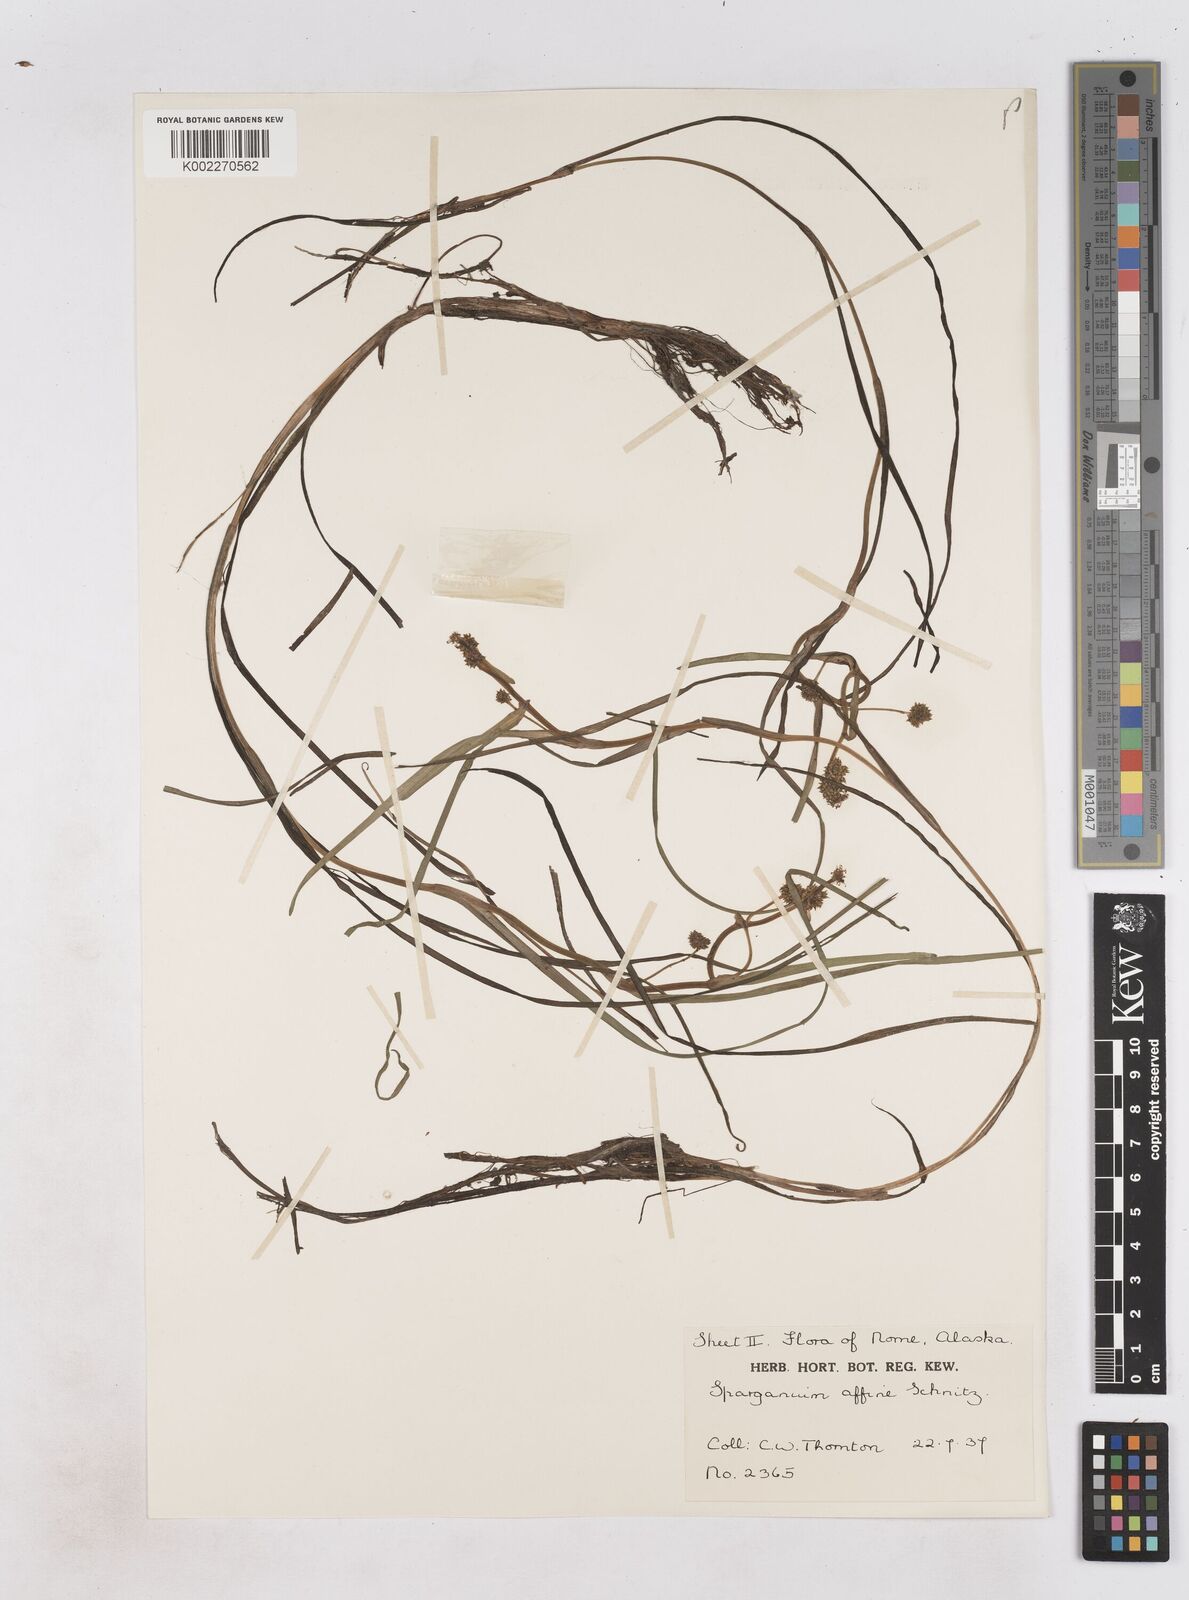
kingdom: Plantae
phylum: Tracheophyta
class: Liliopsida
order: Poales
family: Typhaceae
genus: Sparganium
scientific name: Sparganium angustifolium
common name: Floating bur-reed
